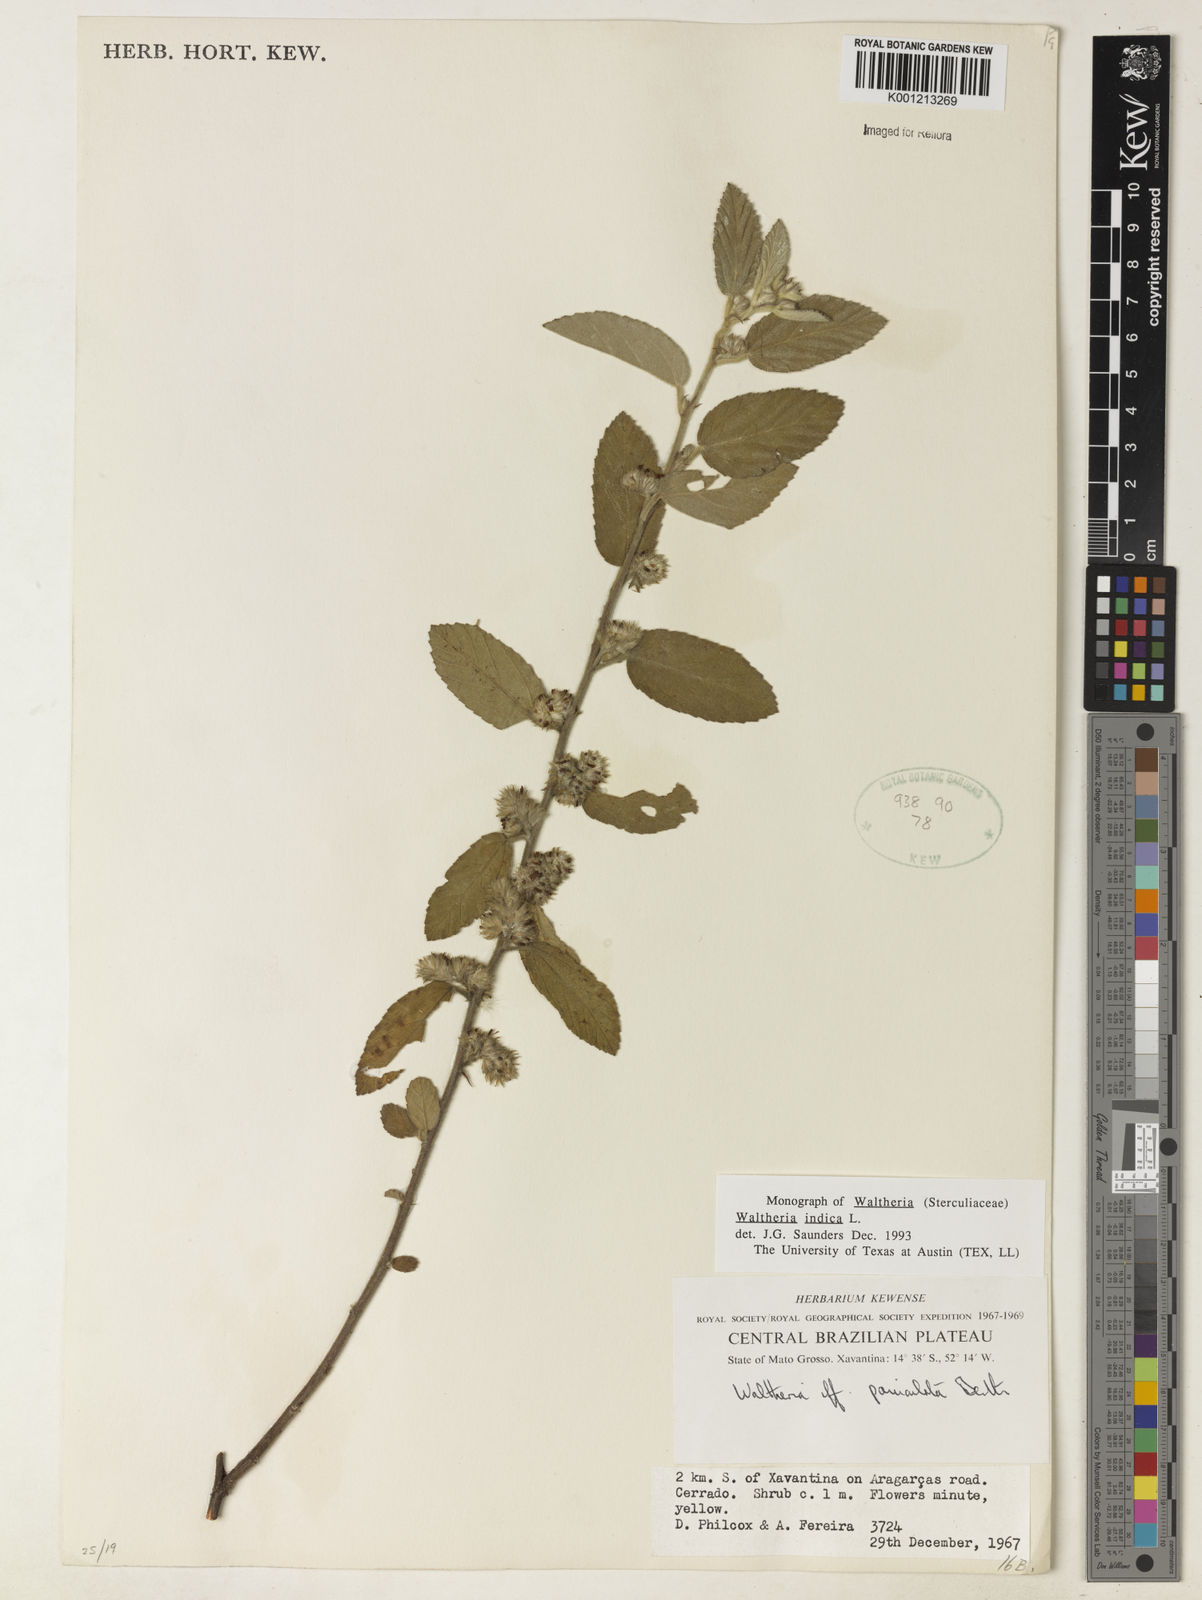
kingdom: Plantae
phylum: Tracheophyta
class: Magnoliopsida
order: Malvales
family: Malvaceae
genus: Waltheria
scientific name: Waltheria indica
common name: Leather-coat
